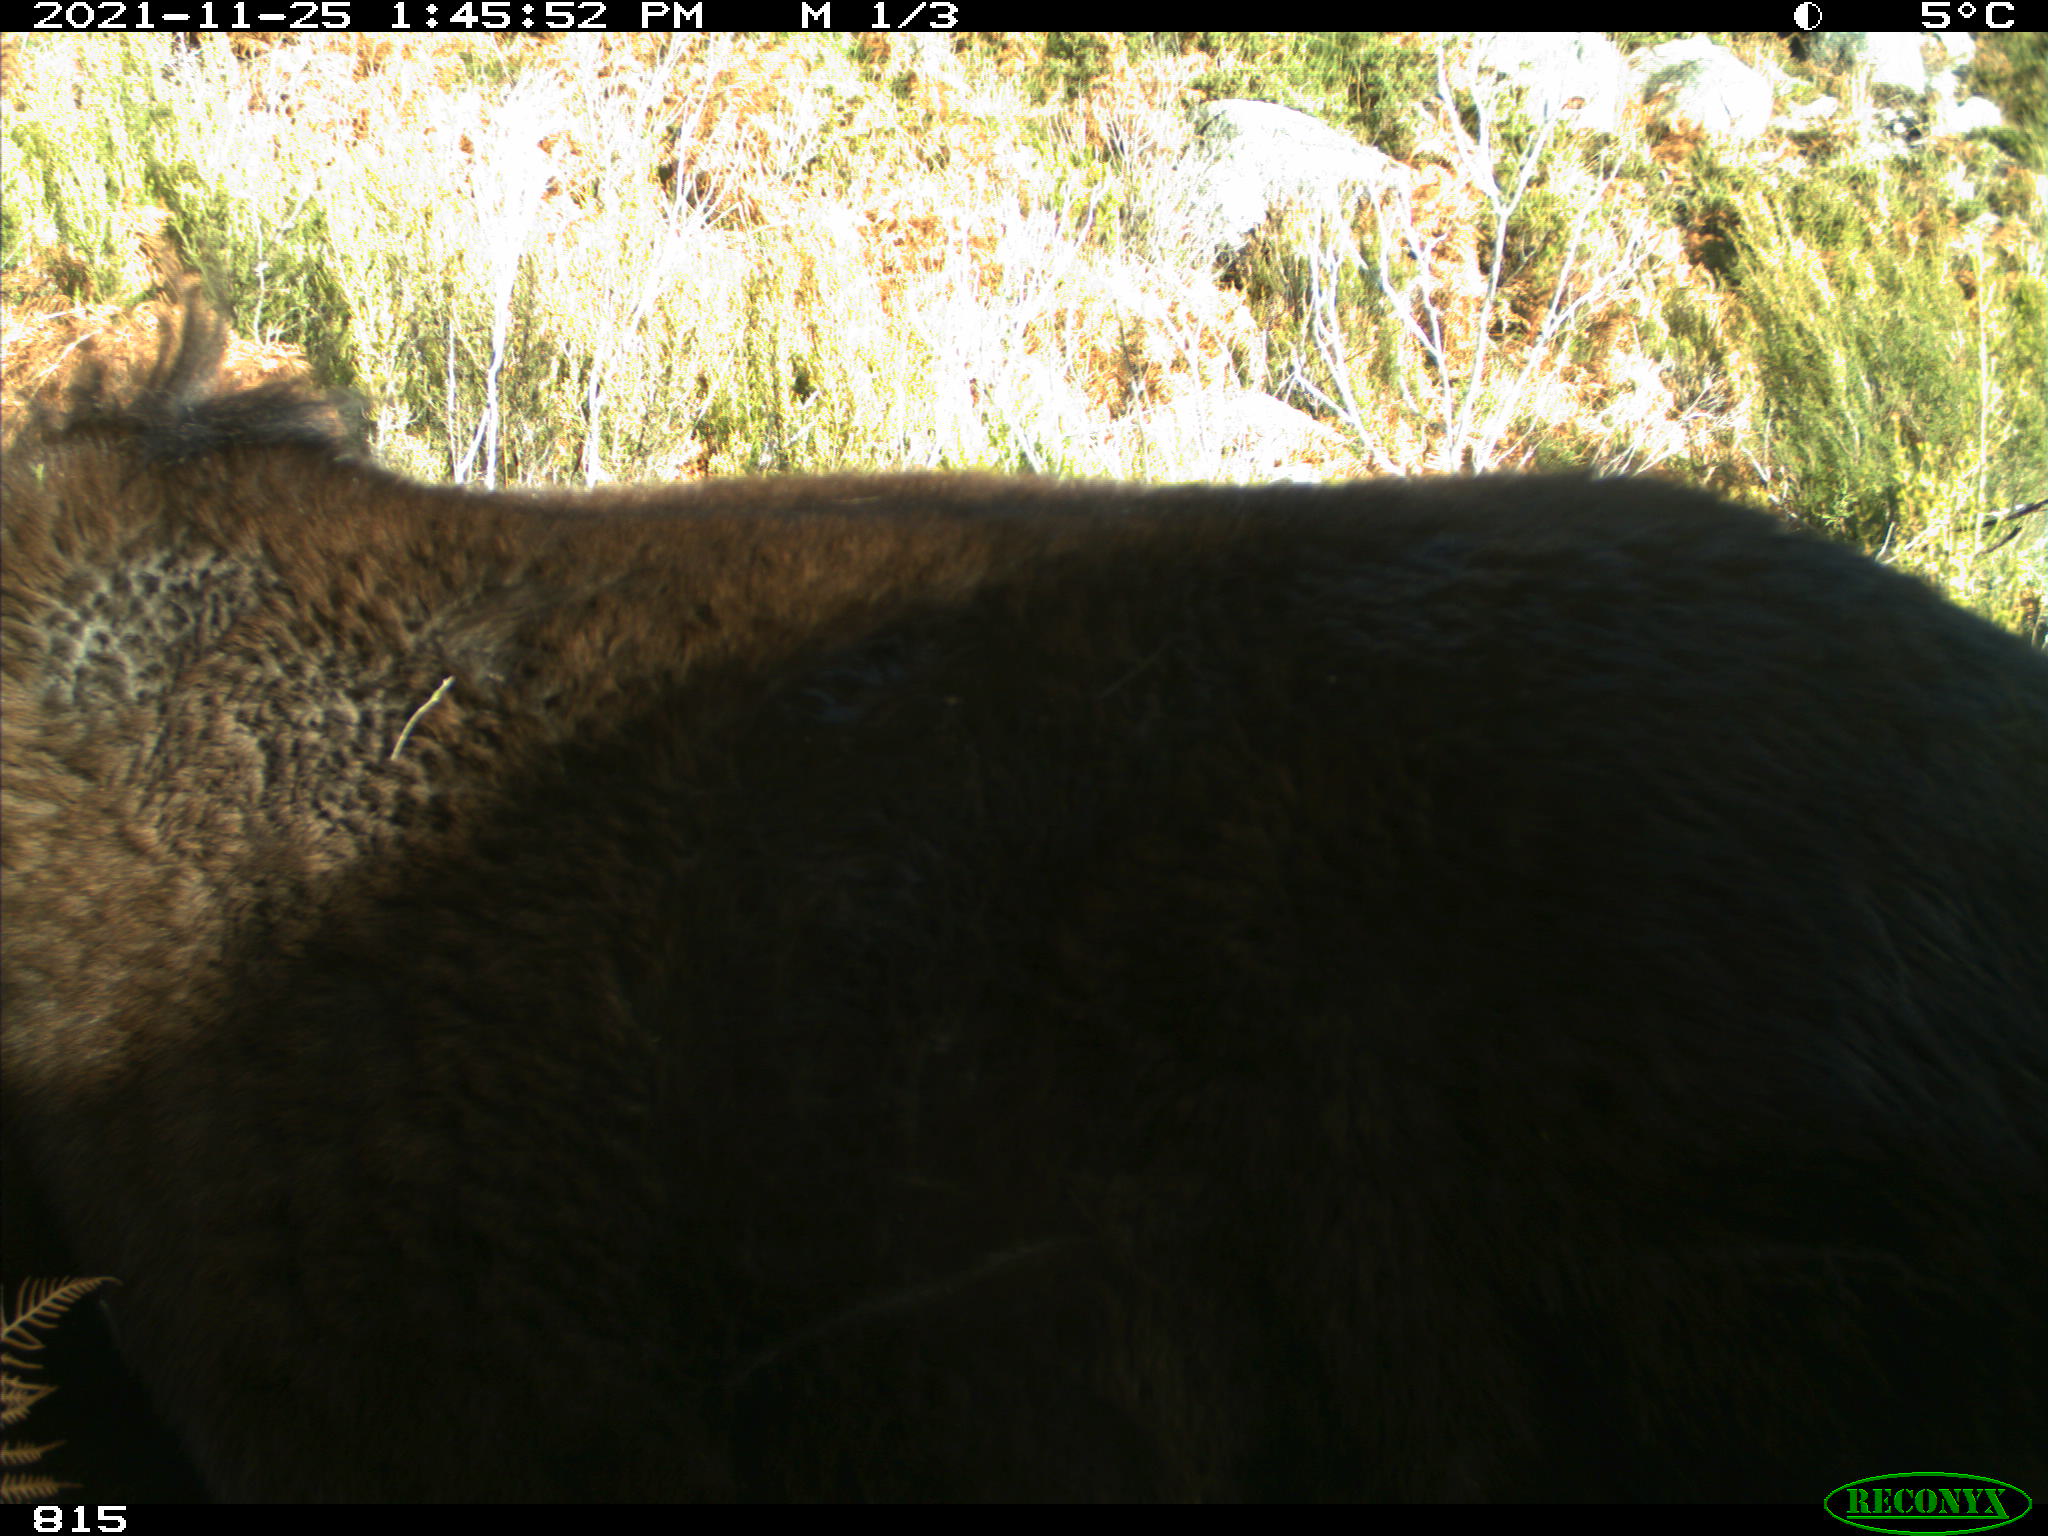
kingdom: Animalia
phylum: Chordata
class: Mammalia
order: Perissodactyla
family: Equidae
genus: Equus
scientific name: Equus caballus
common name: Horse
